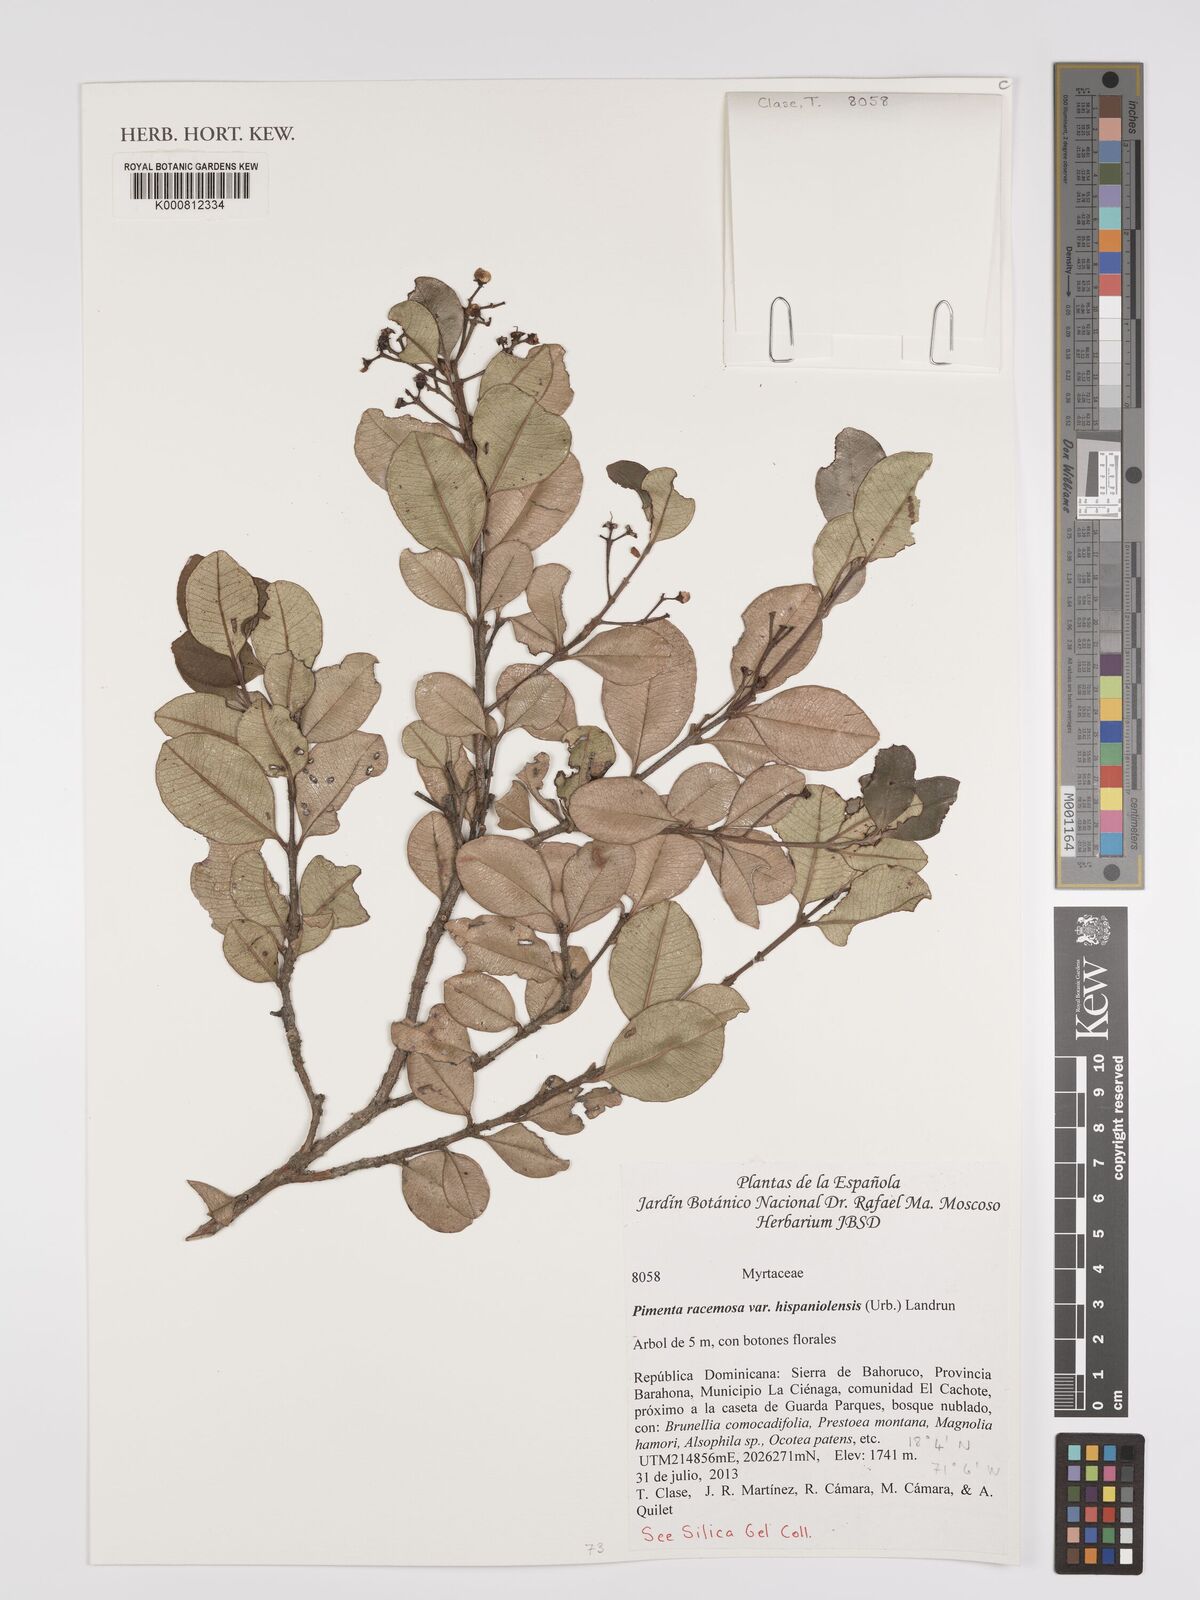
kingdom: Plantae
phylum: Tracheophyta
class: Magnoliopsida
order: Myrtales
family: Myrtaceae
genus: Pimenta
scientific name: Pimenta racemosa
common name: Bay rum tree
